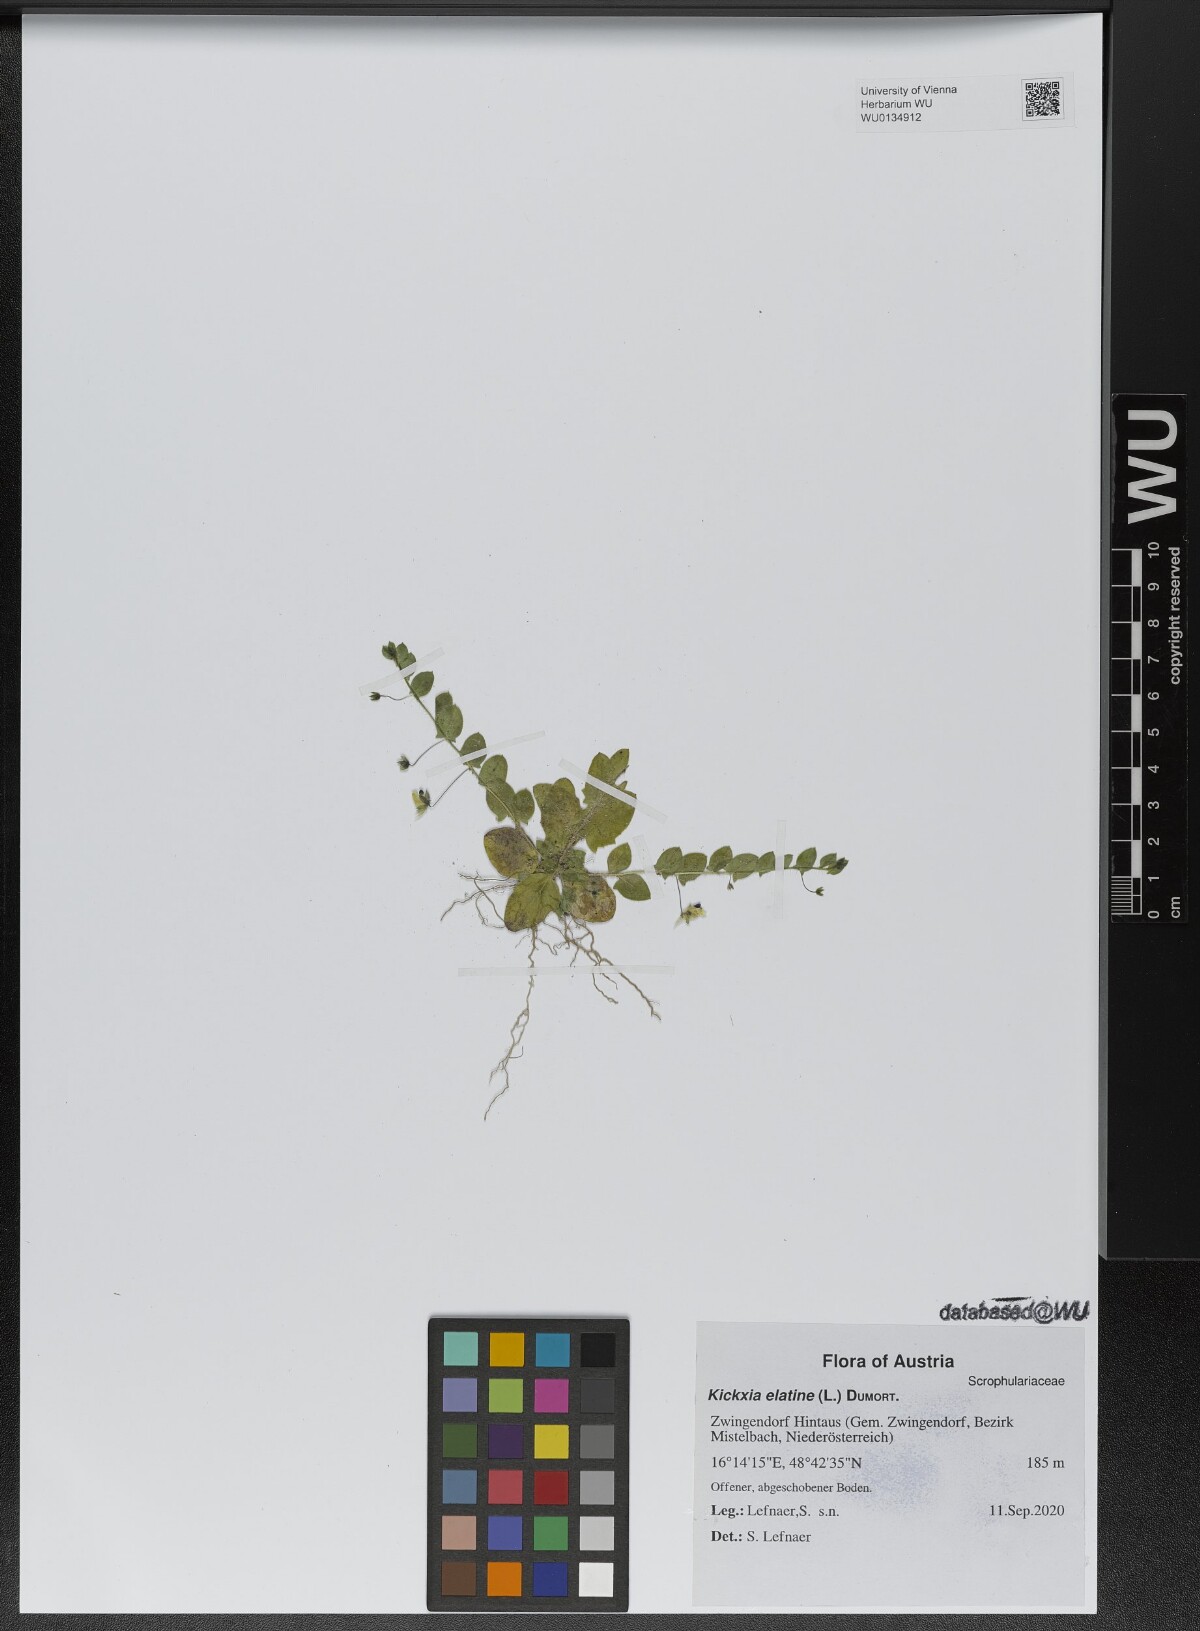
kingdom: Plantae
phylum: Tracheophyta
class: Magnoliopsida
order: Lamiales
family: Plantaginaceae
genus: Kickxia
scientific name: Kickxia elatine
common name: Sharp-leaved fluellen
